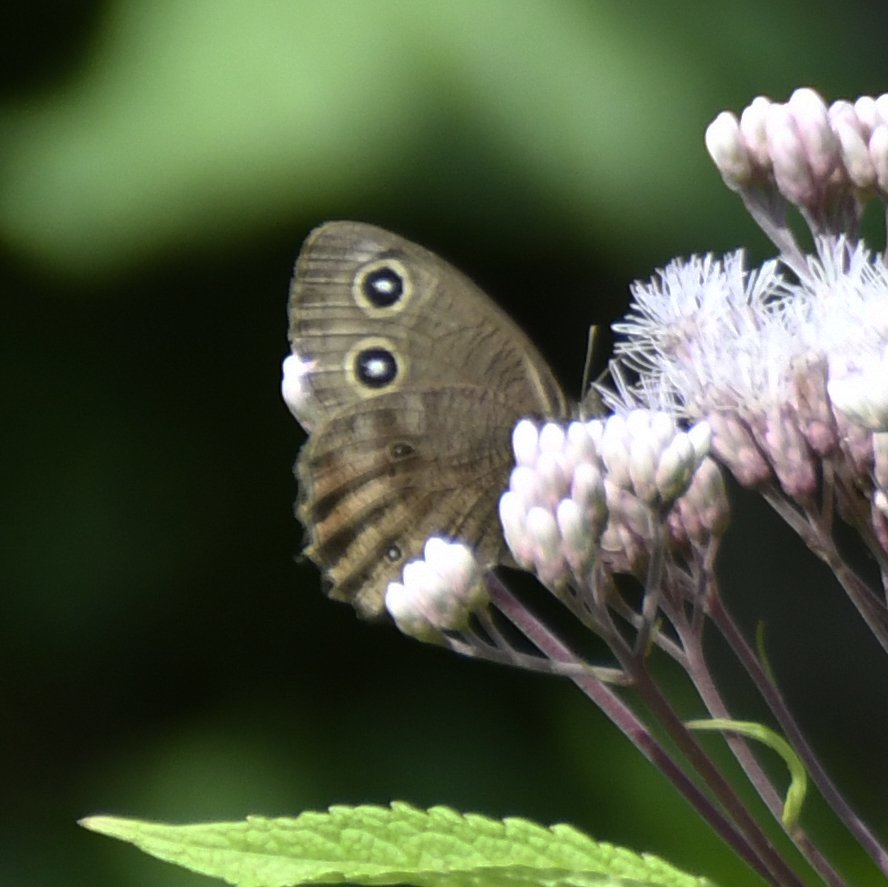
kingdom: Animalia
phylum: Arthropoda
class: Insecta
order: Lepidoptera
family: Nymphalidae
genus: Cercyonis
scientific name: Cercyonis pegala
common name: Common Wood-Nymph
